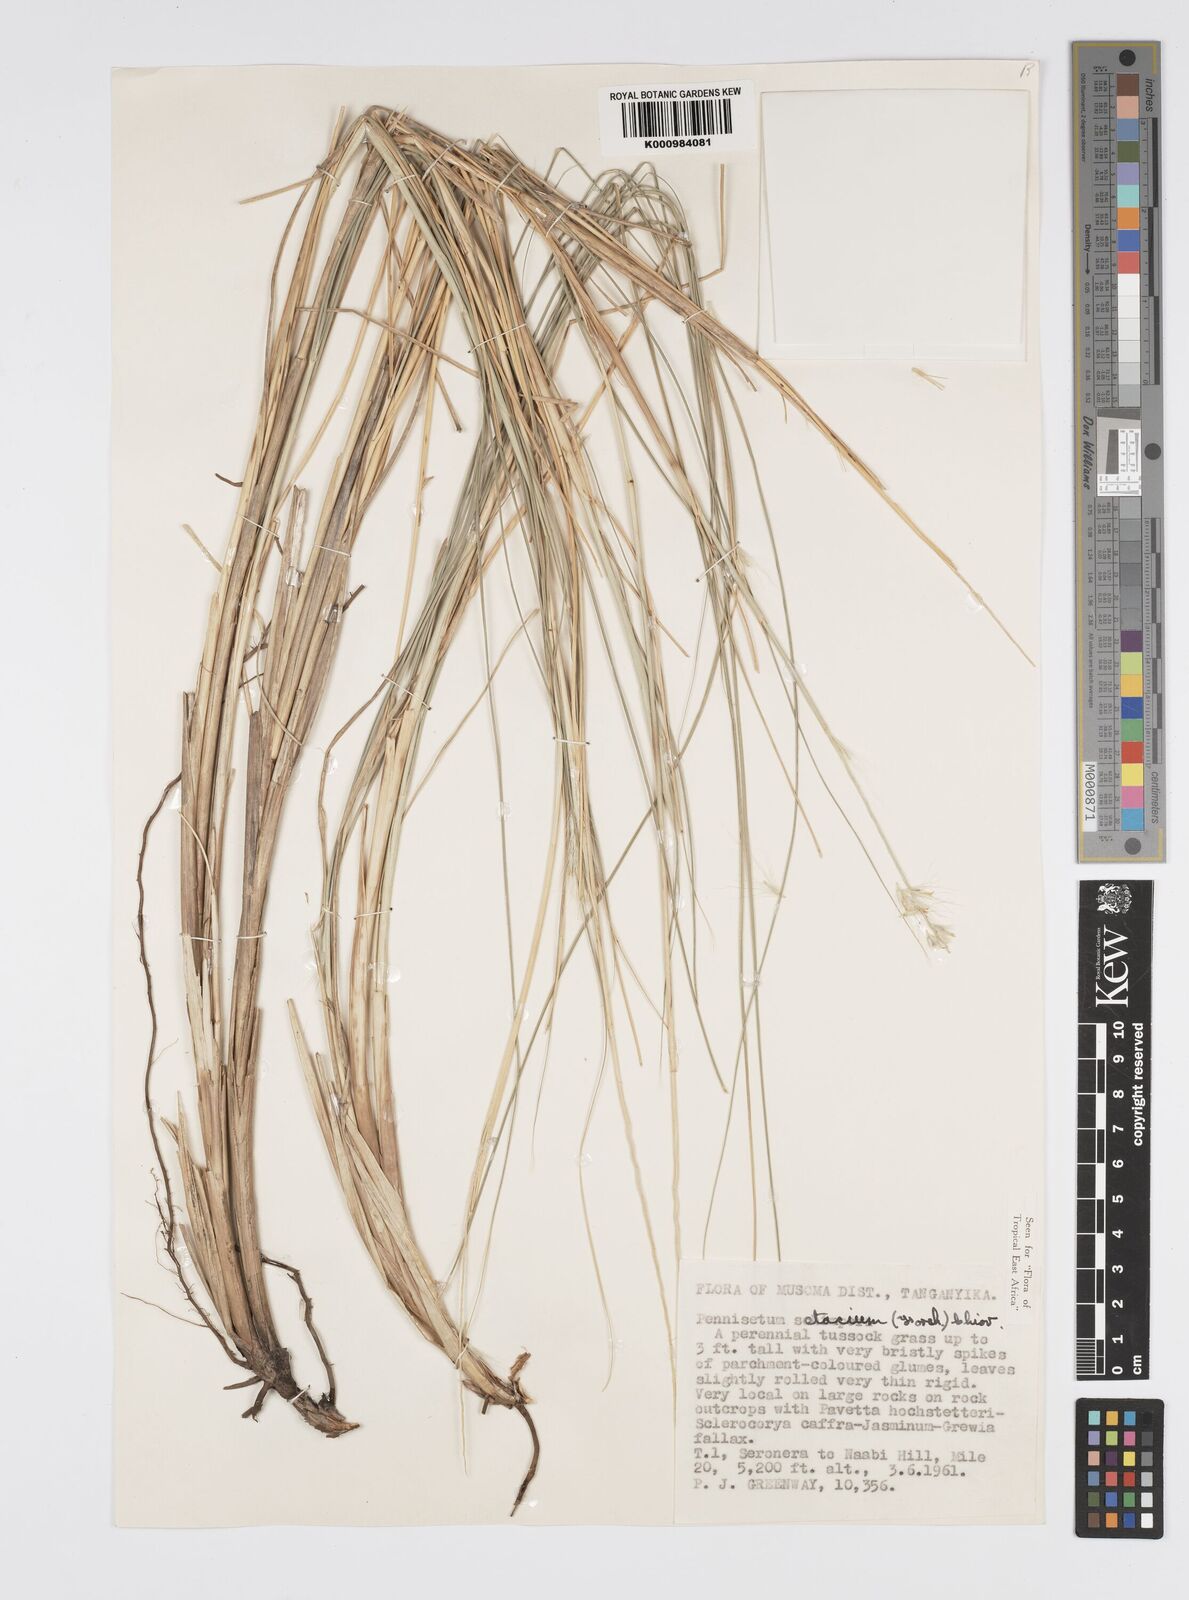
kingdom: Plantae
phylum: Tracheophyta
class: Liliopsida
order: Poales
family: Poaceae
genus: Cenchrus
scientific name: Cenchrus setaceus
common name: Crimson fountaingrass
